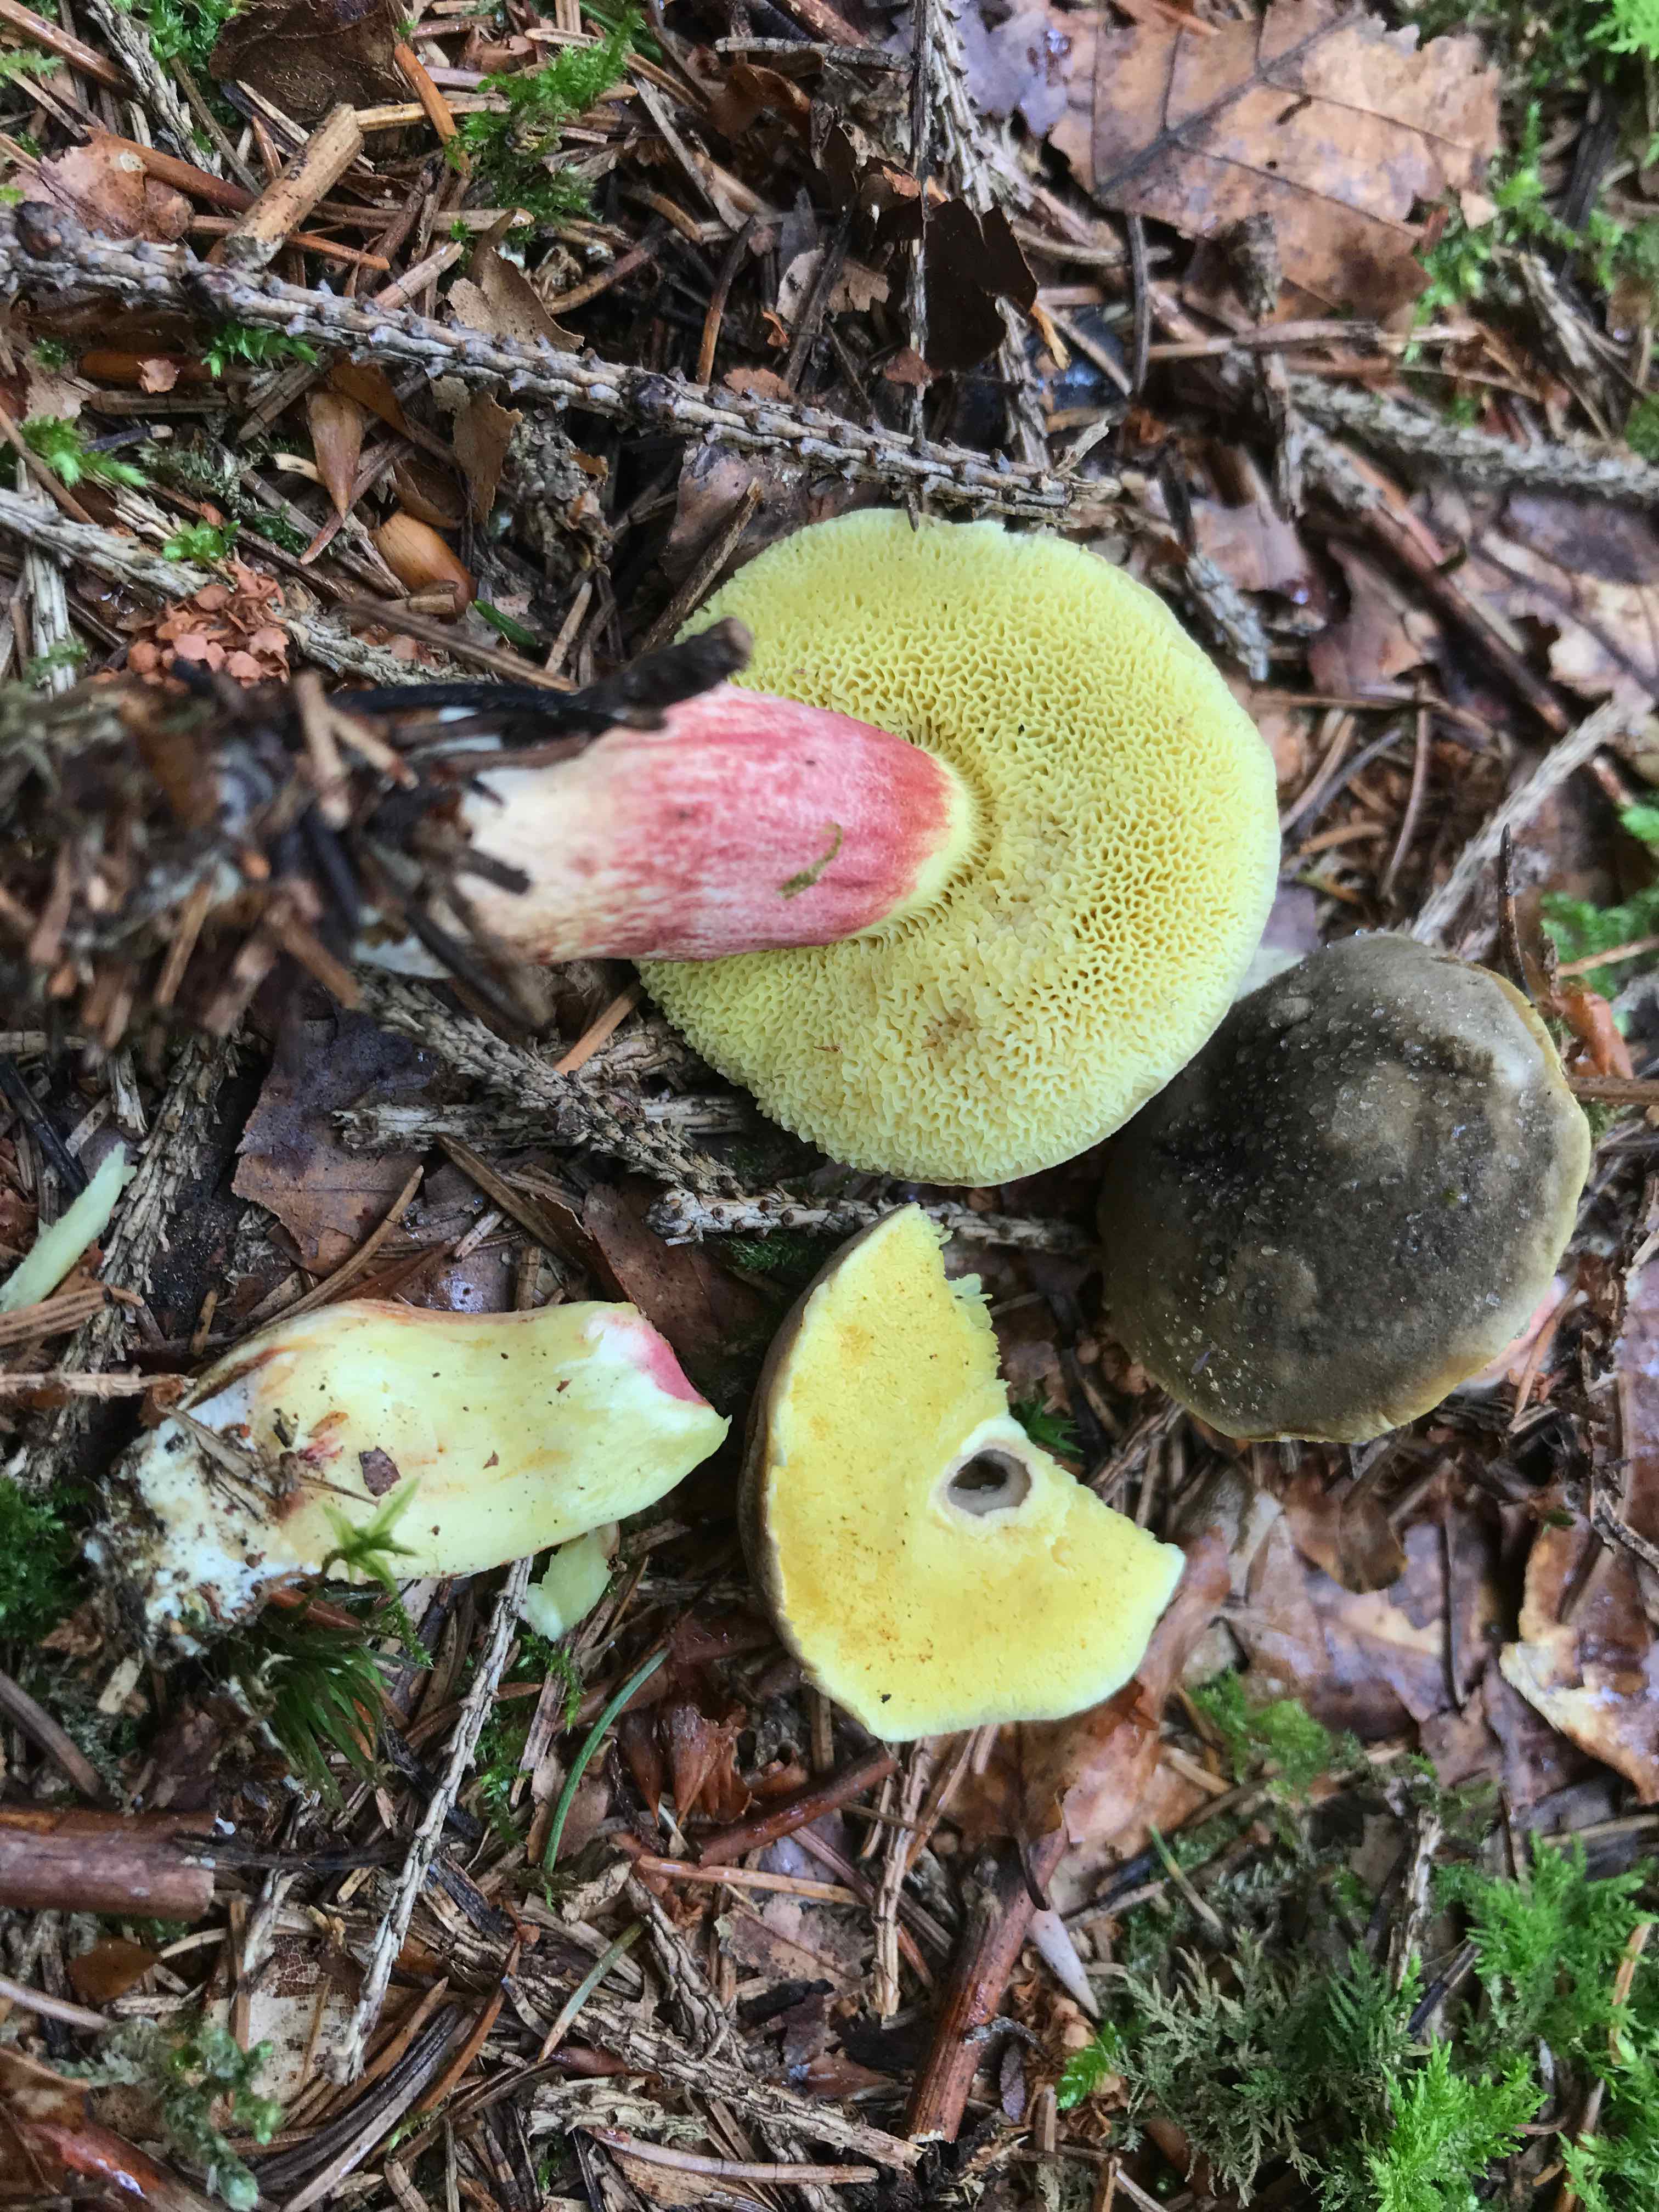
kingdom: Fungi
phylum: Basidiomycota
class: Agaricomycetes
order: Boletales
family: Boletaceae
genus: Xerocomellus
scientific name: Xerocomellus pruinatus
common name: dugget rørhat
